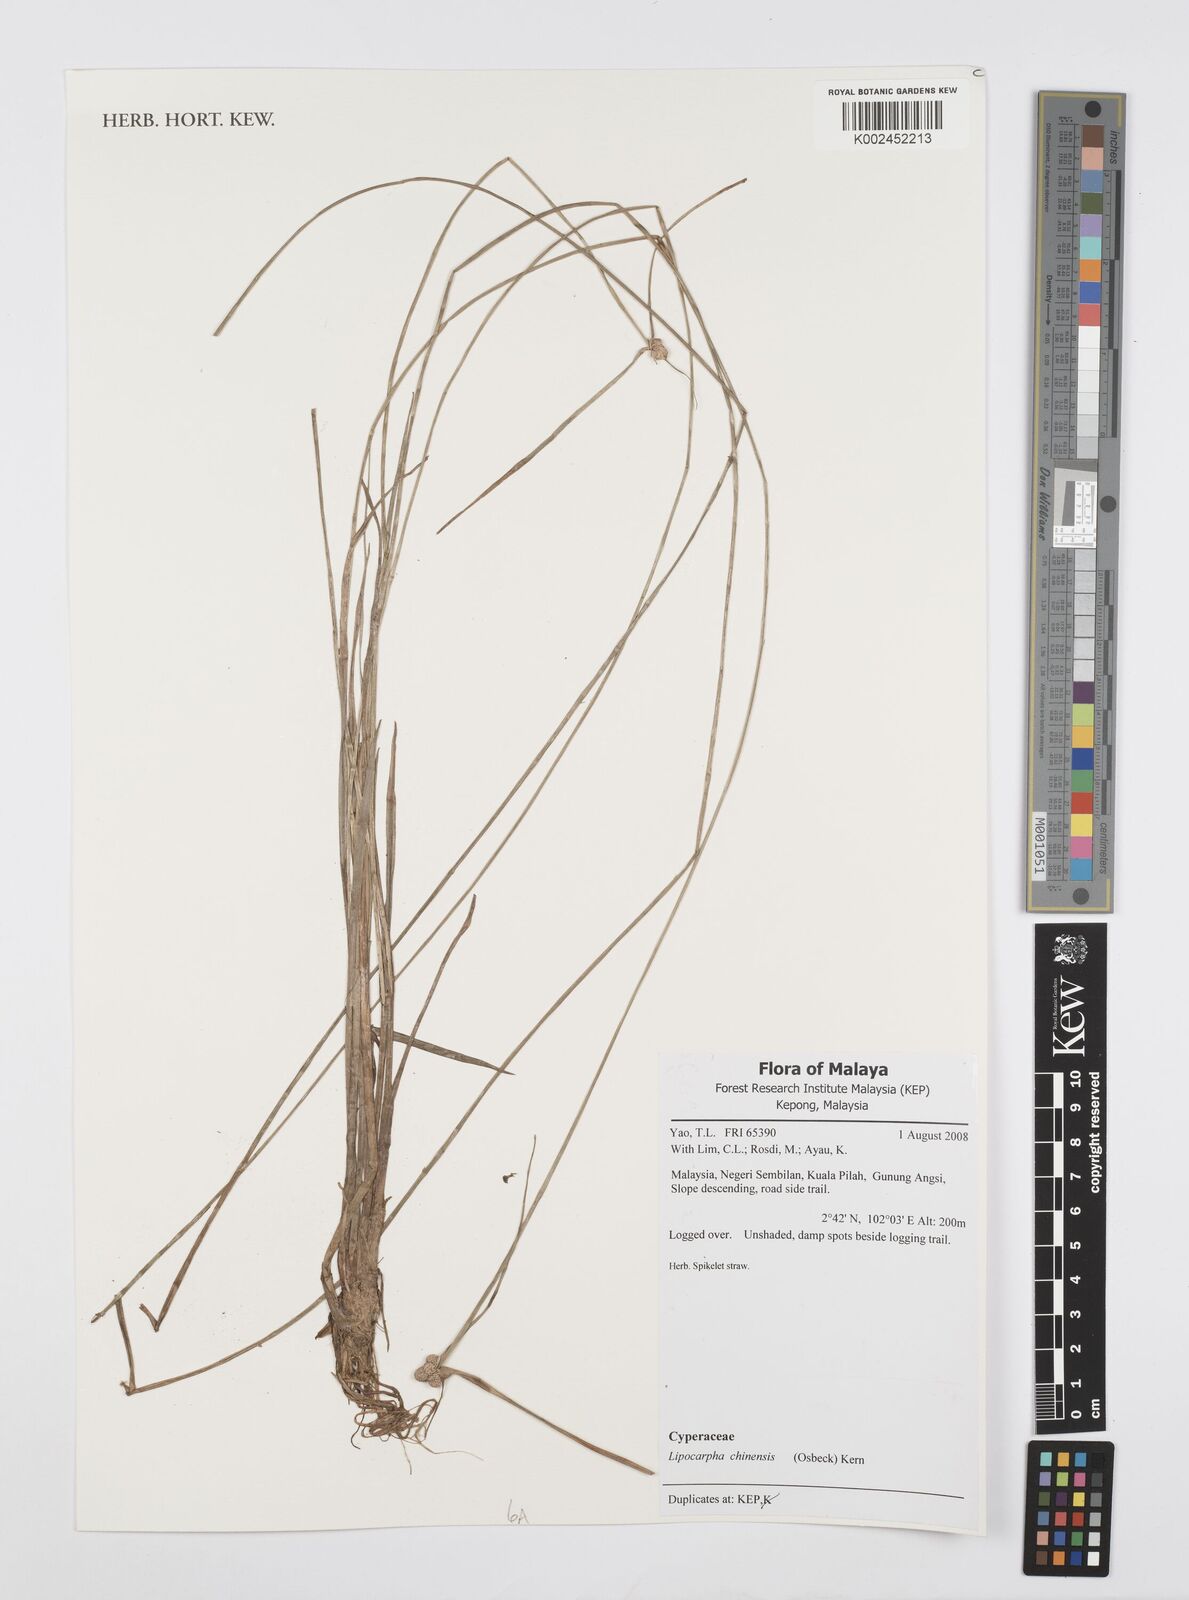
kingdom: Plantae
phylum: Tracheophyta
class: Liliopsida
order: Poales
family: Cyperaceae
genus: Cyperus
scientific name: Cyperus
